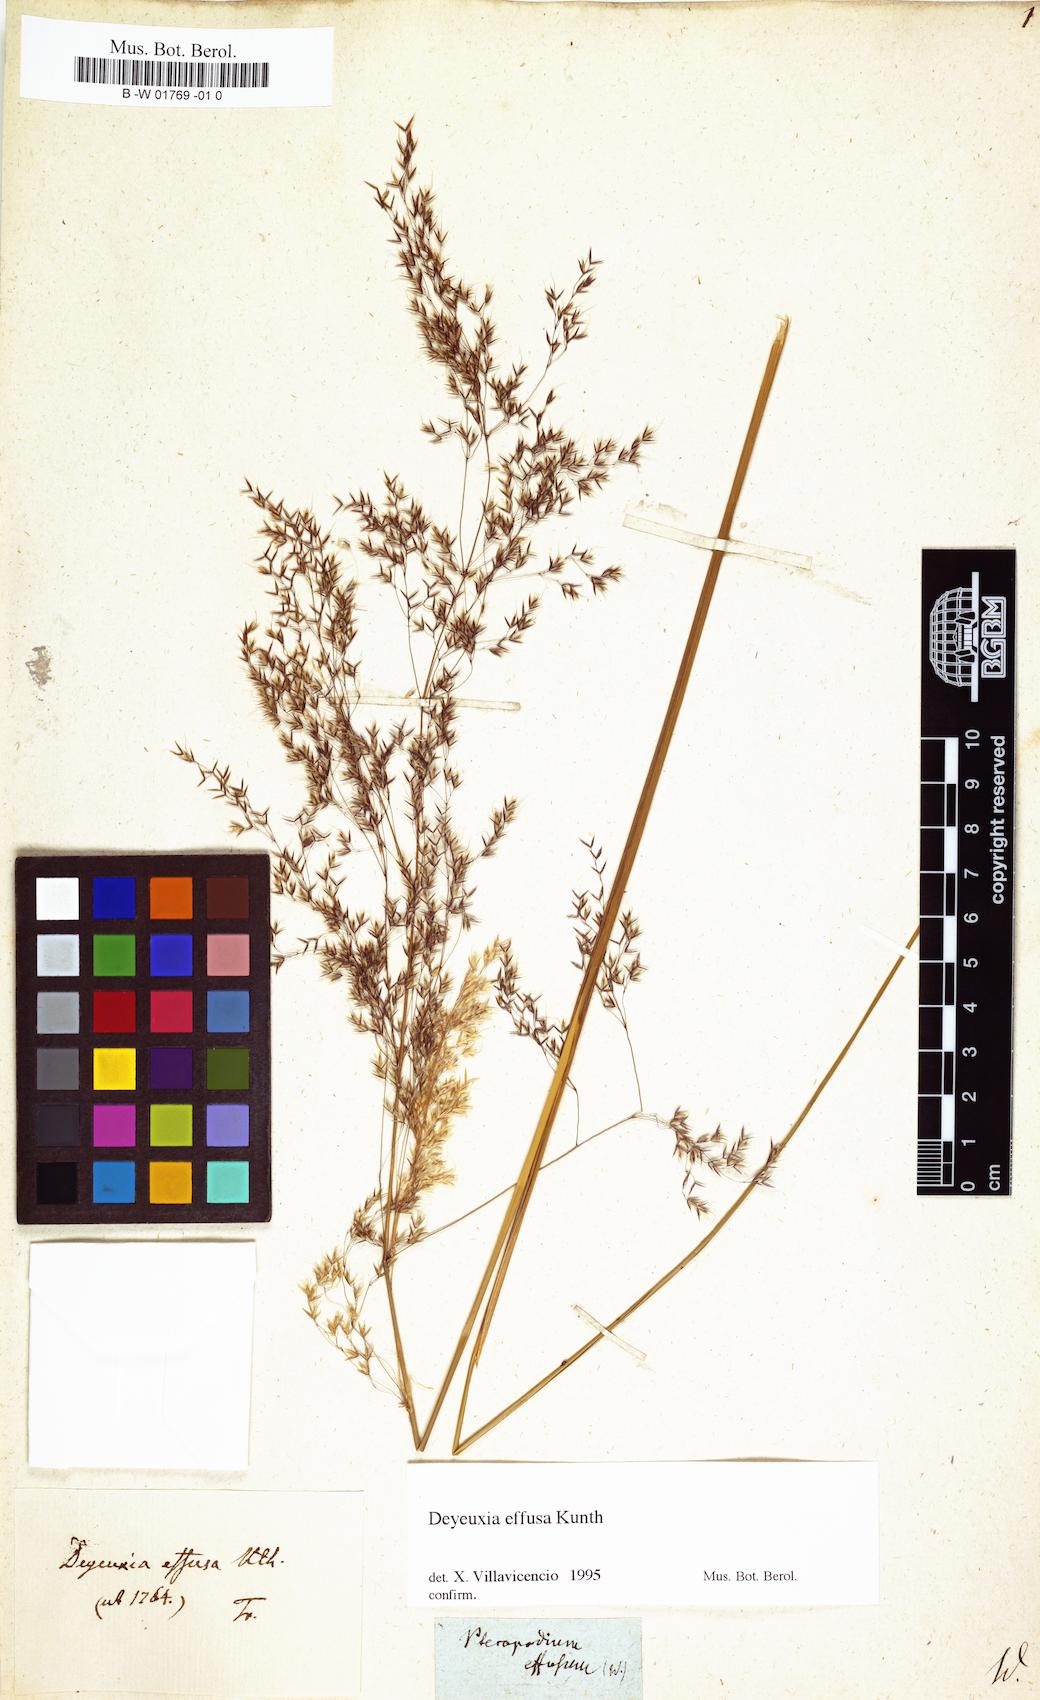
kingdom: Plantae
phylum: Tracheophyta
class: Liliopsida
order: Poales
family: Poaceae
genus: Paramochloa
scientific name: Paramochloa effusa
